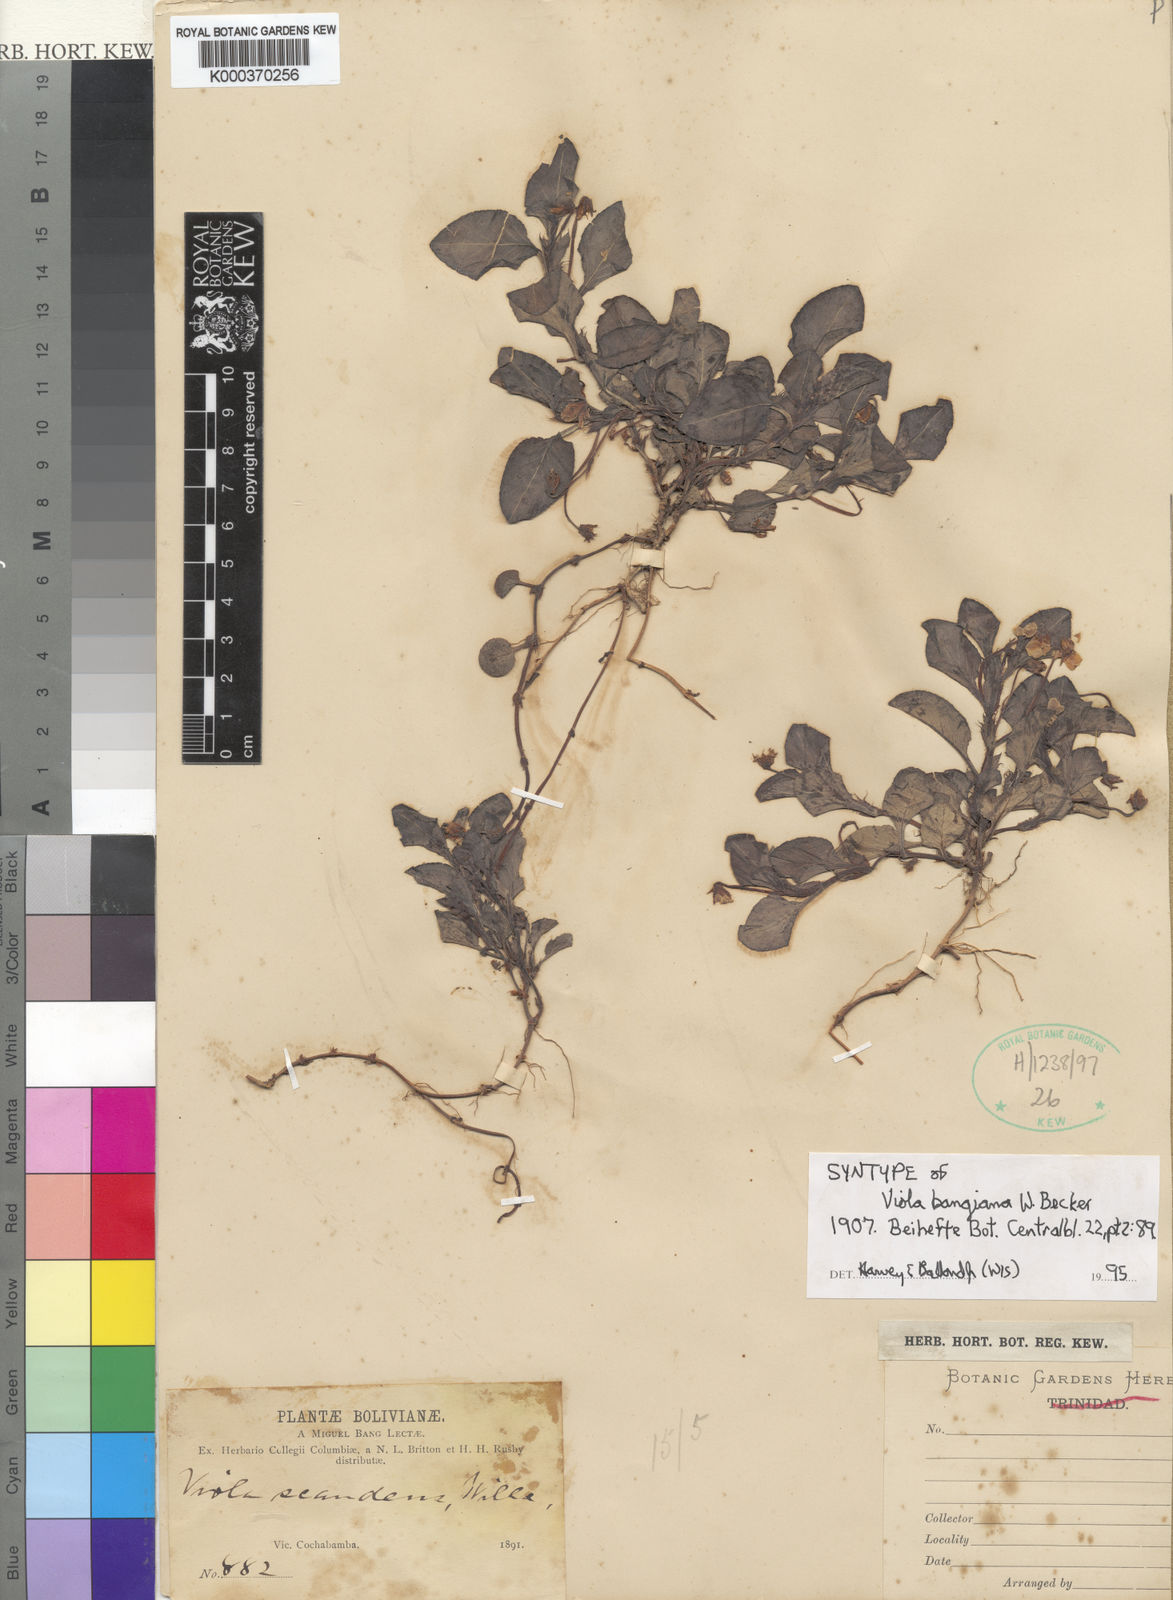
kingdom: Plantae
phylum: Tracheophyta
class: Magnoliopsida
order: Malpighiales
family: Violaceae
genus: Viola
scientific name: Viola boliviana
